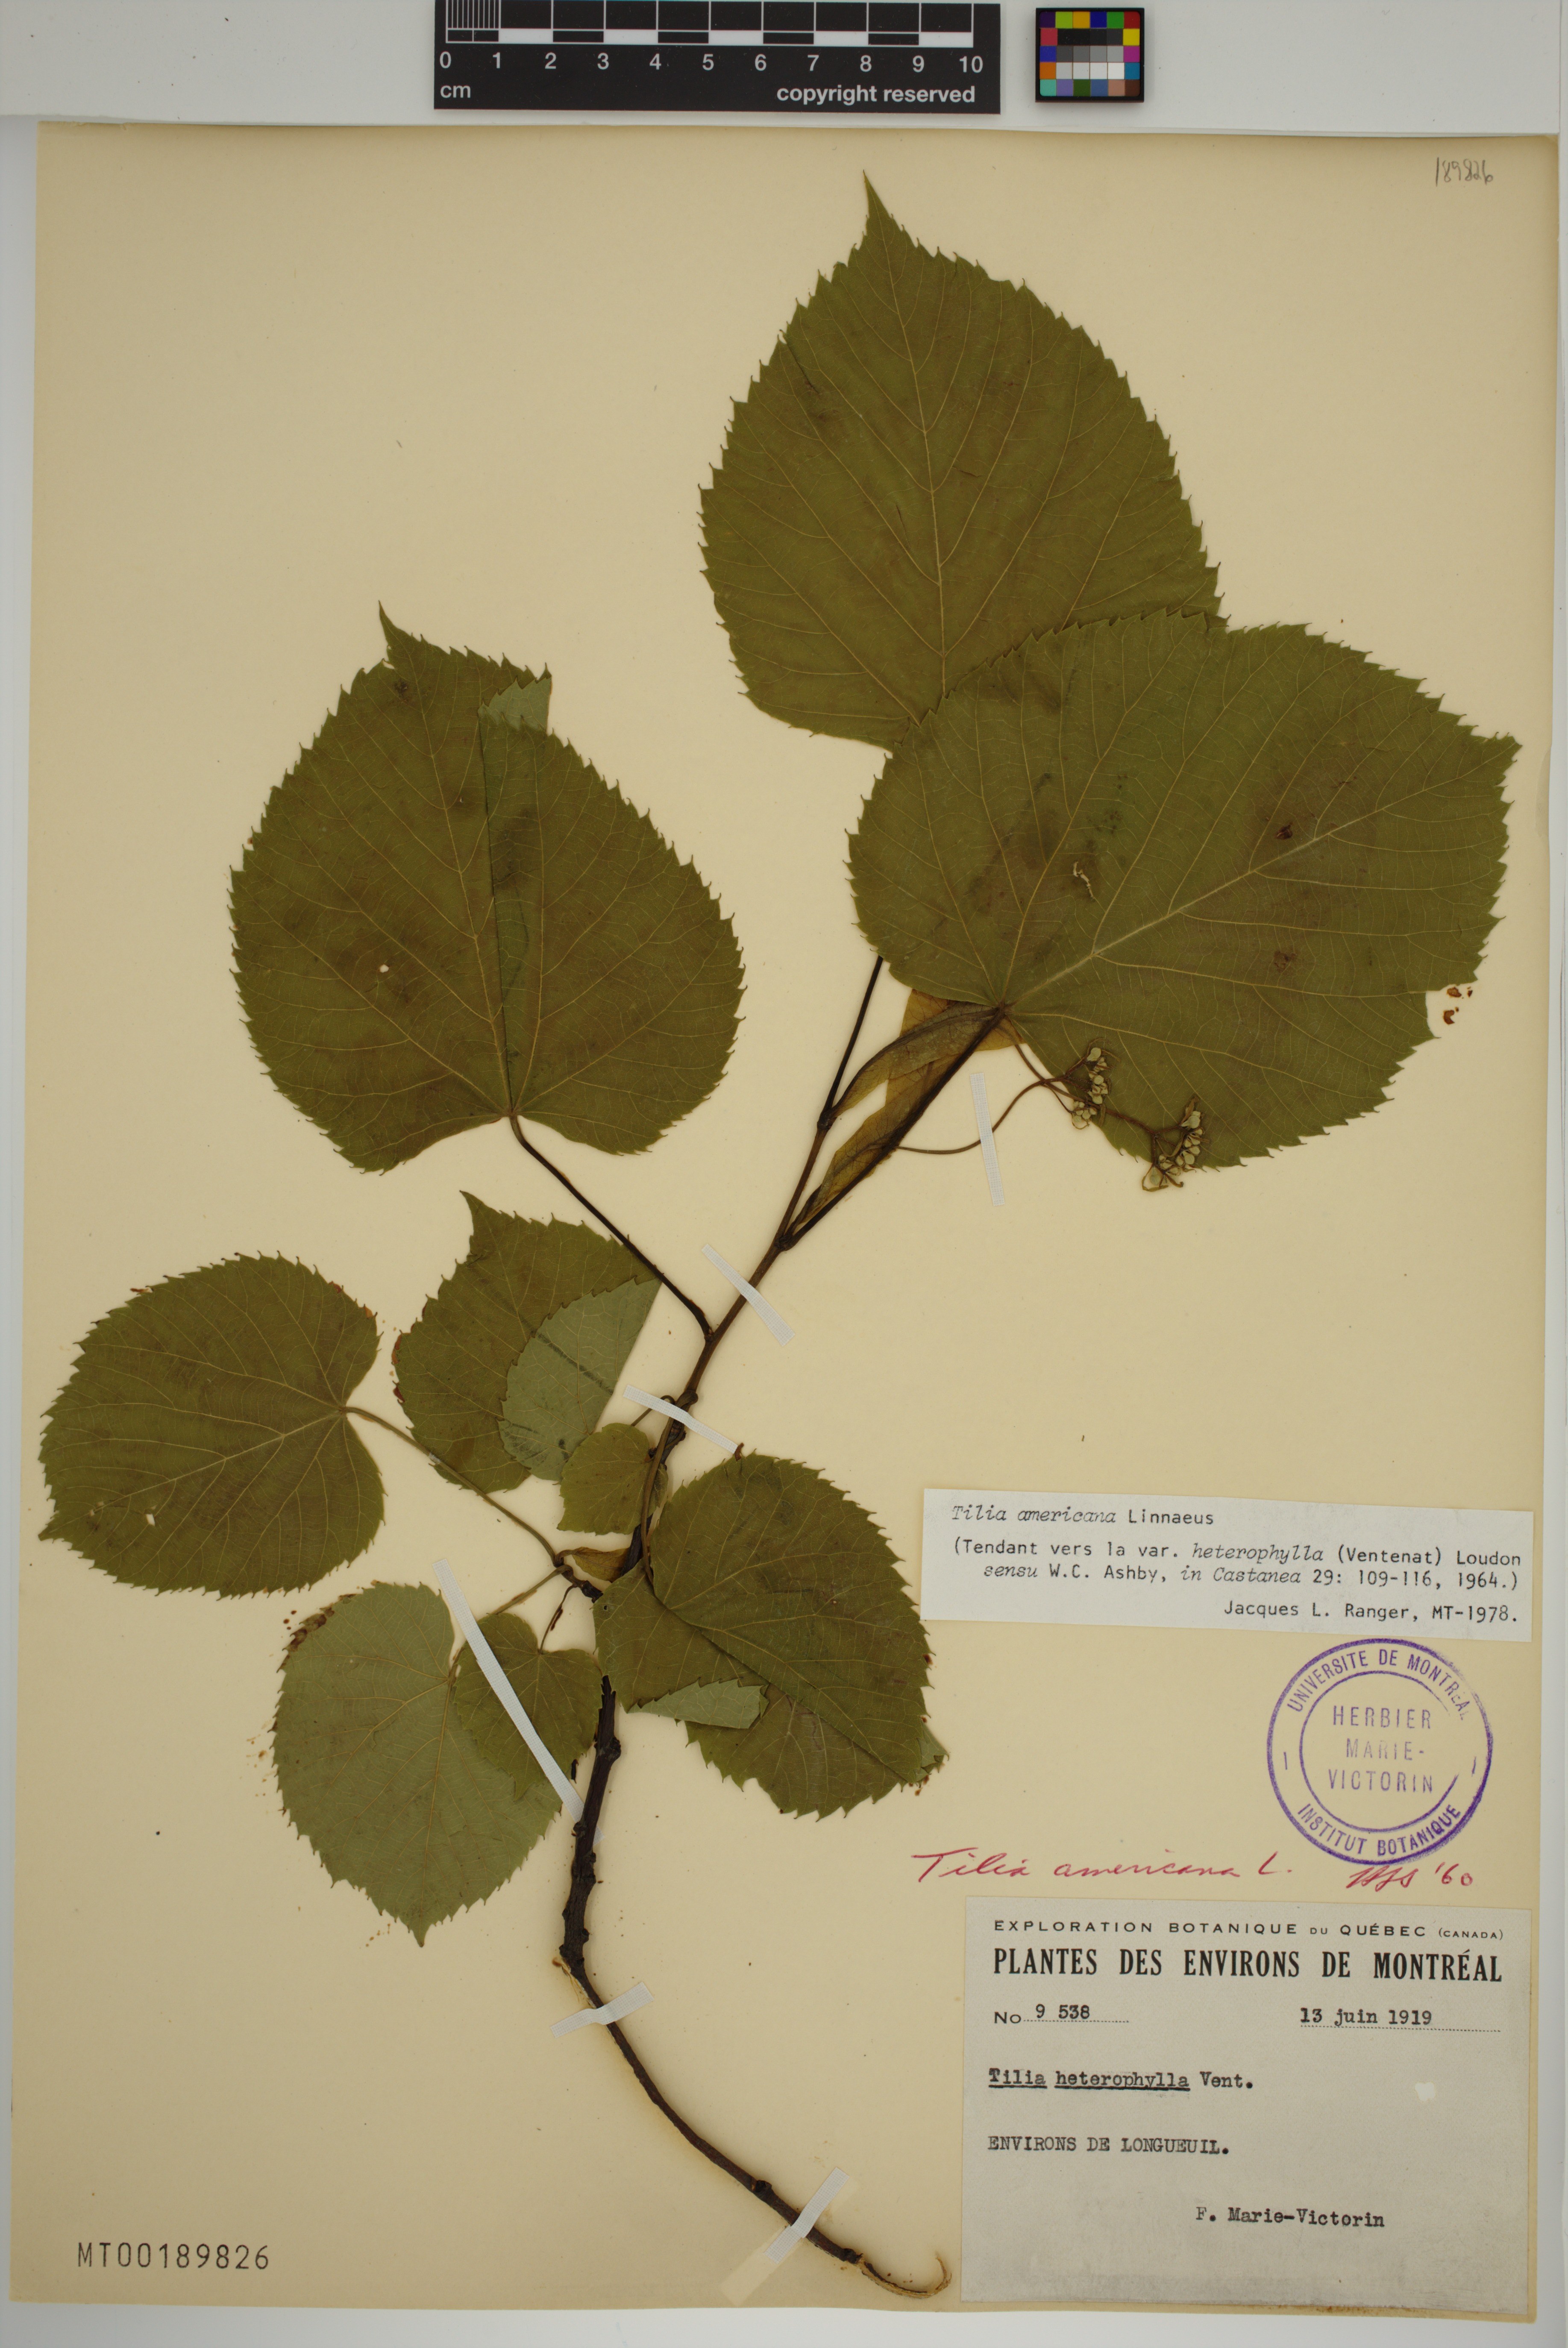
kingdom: Plantae
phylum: Tracheophyta
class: Magnoliopsida
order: Malvales
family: Malvaceae
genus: Tilia
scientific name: Tilia americana
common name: Basswood
